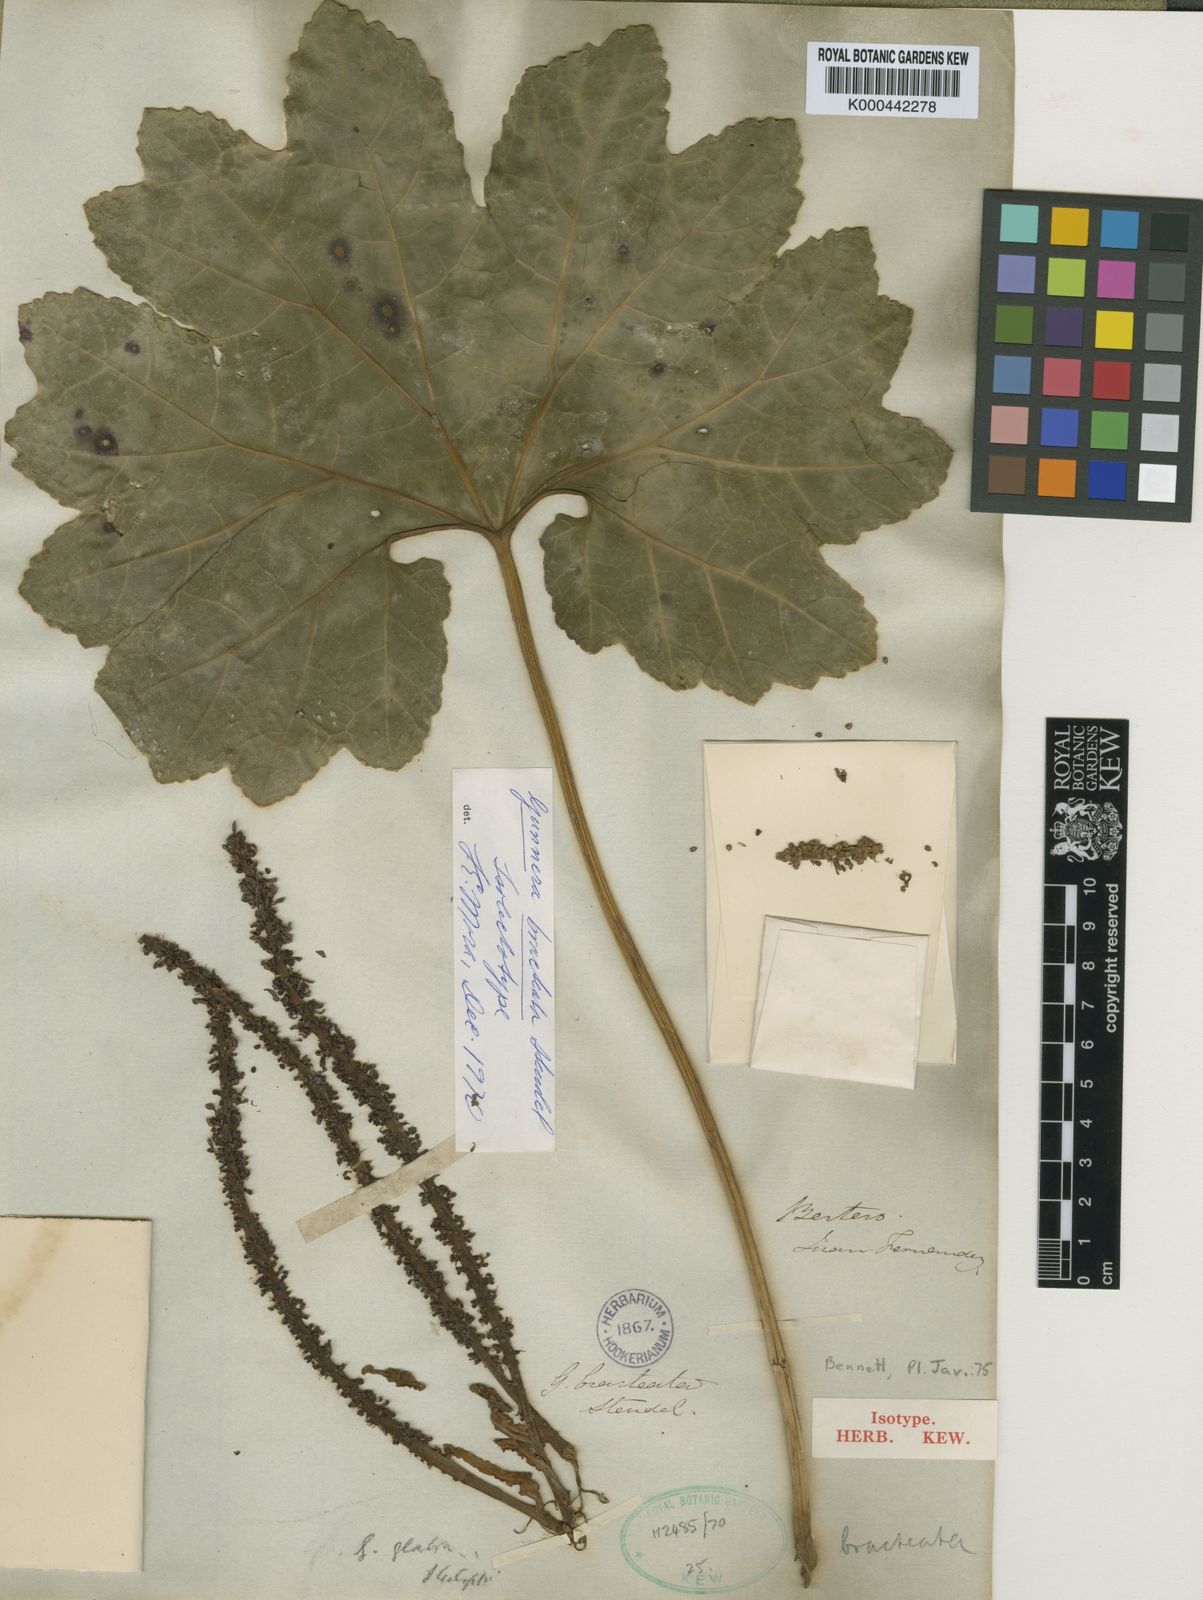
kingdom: Plantae
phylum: Tracheophyta
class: Magnoliopsida
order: Gunnerales
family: Gunneraceae
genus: Gunnera
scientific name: Gunnera bracteata
